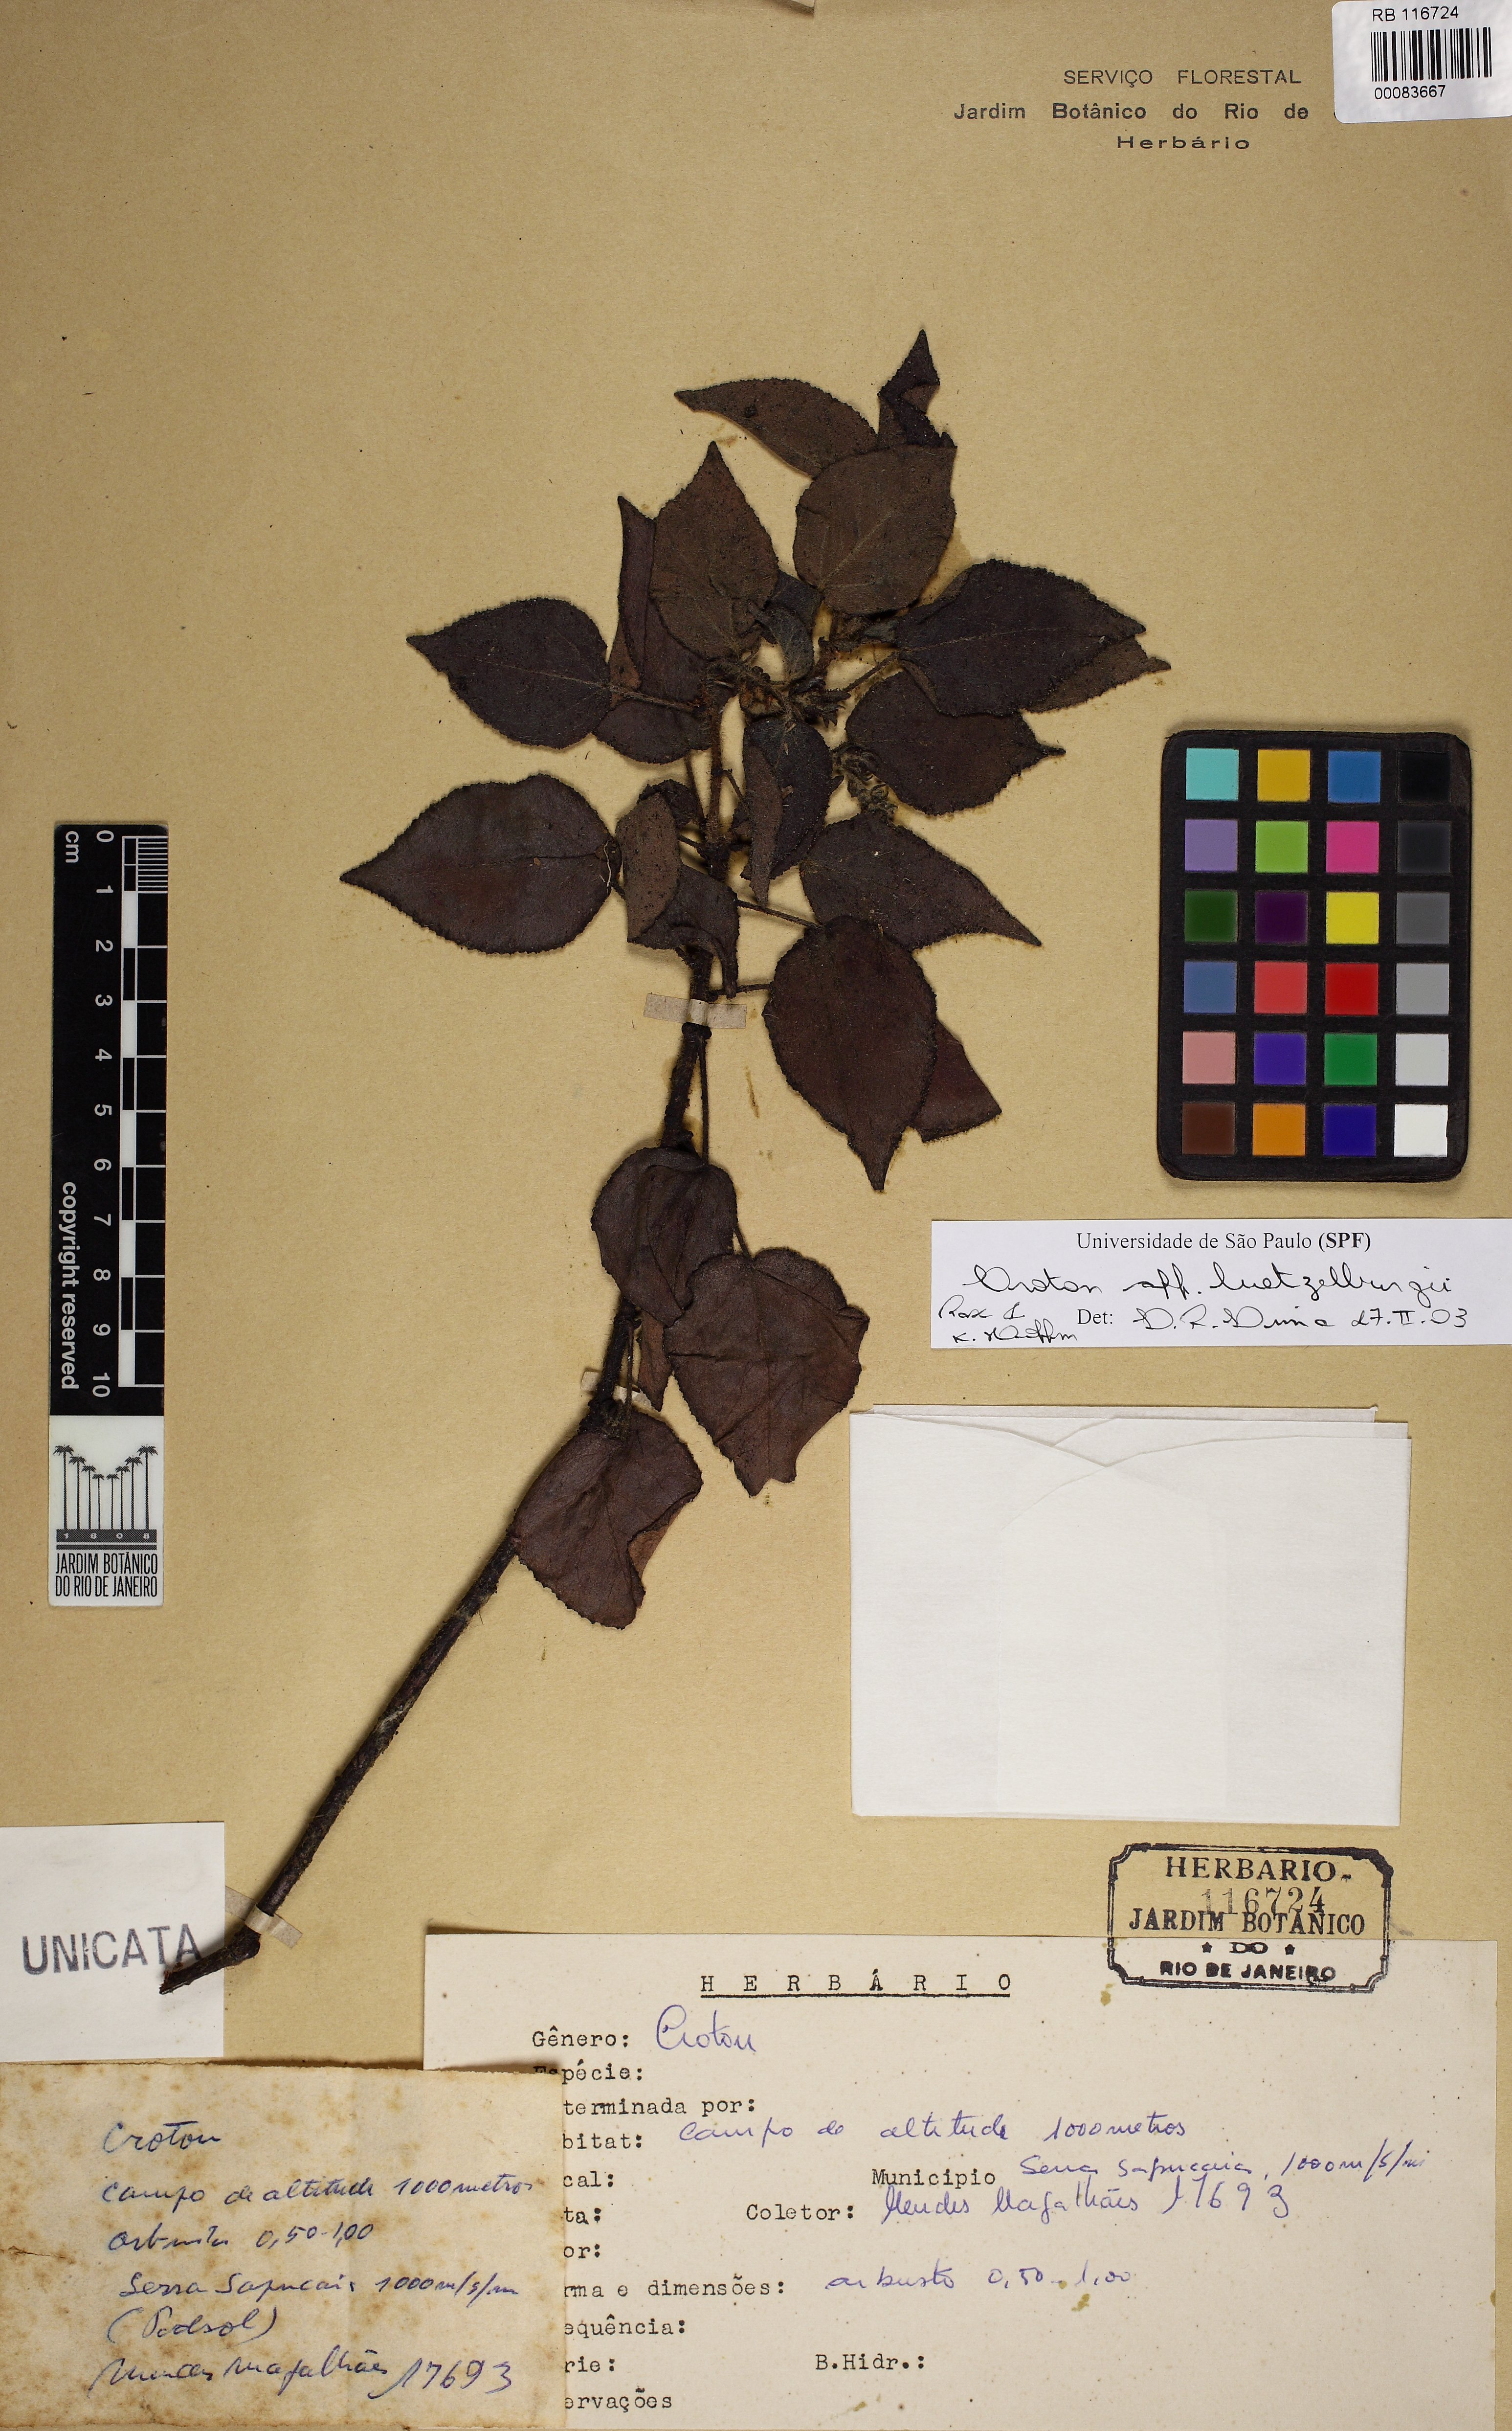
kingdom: Plantae
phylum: Tracheophyta
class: Magnoliopsida
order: Malpighiales
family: Euphorbiaceae
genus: Croton
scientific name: Croton luetzelburgii
